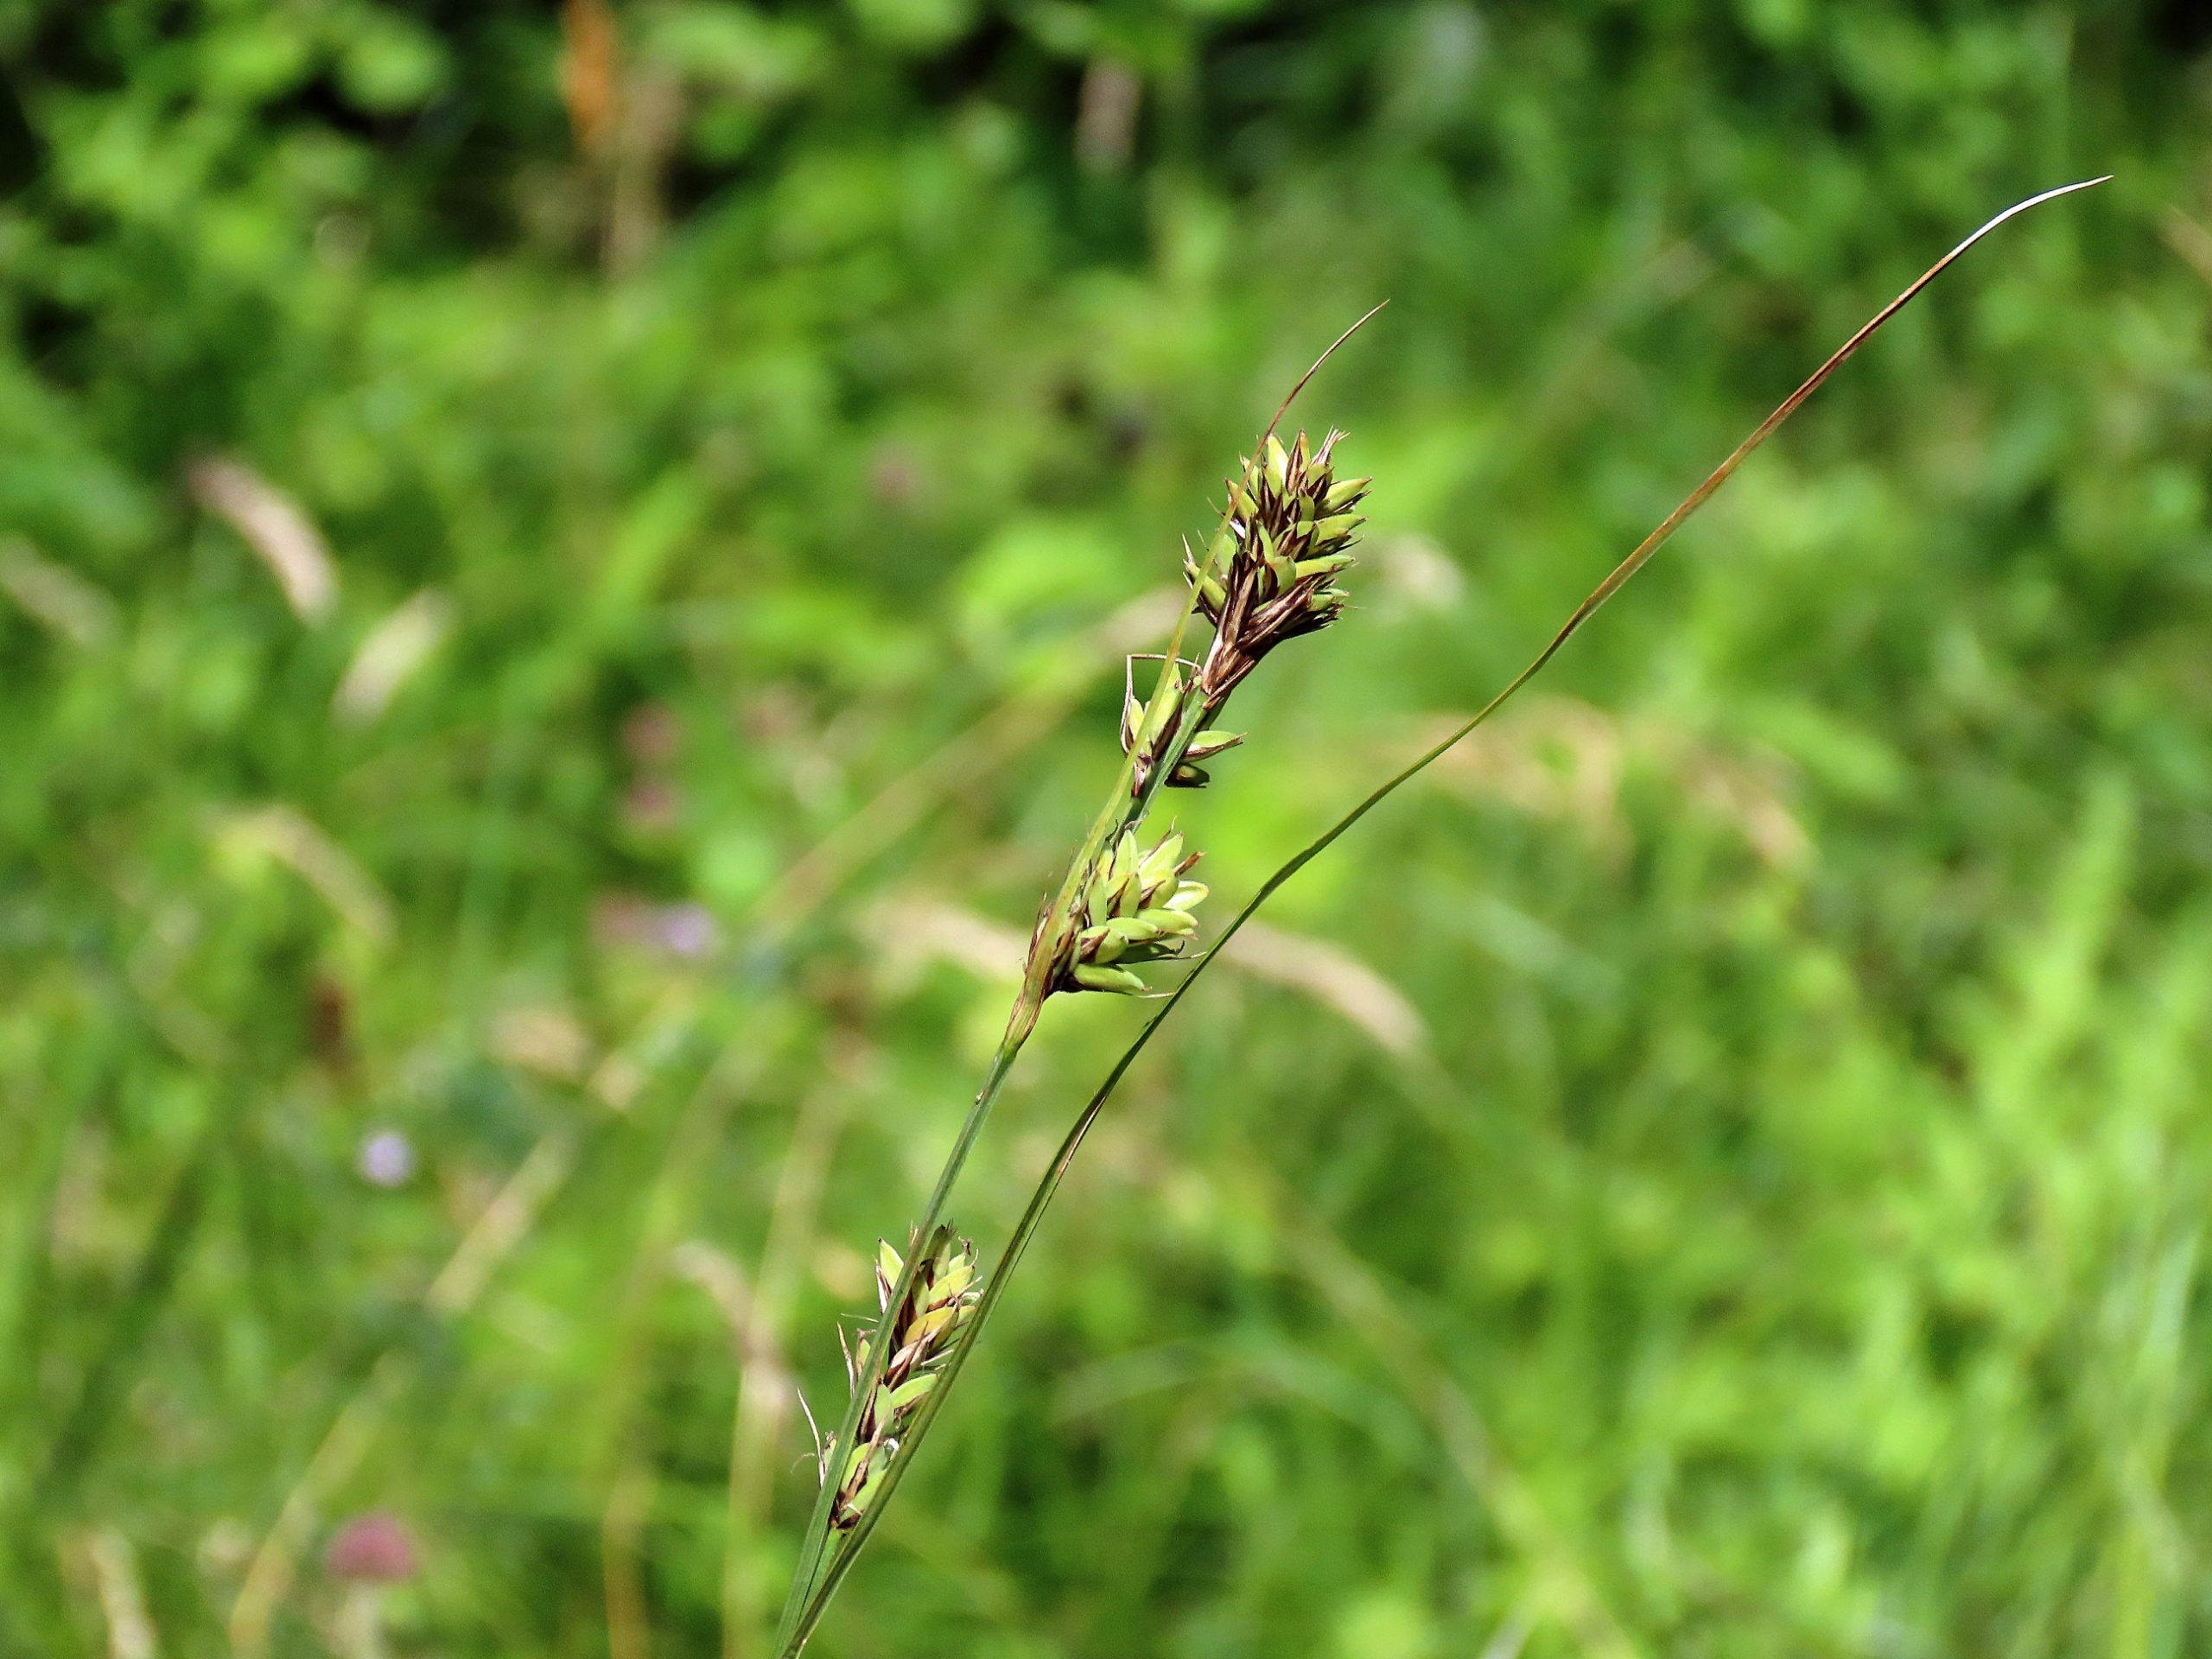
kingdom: Plantae
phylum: Tracheophyta
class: Liliopsida
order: Poales
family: Cyperaceae
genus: Carex
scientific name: Carex buxbaumii
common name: Kølle-star
